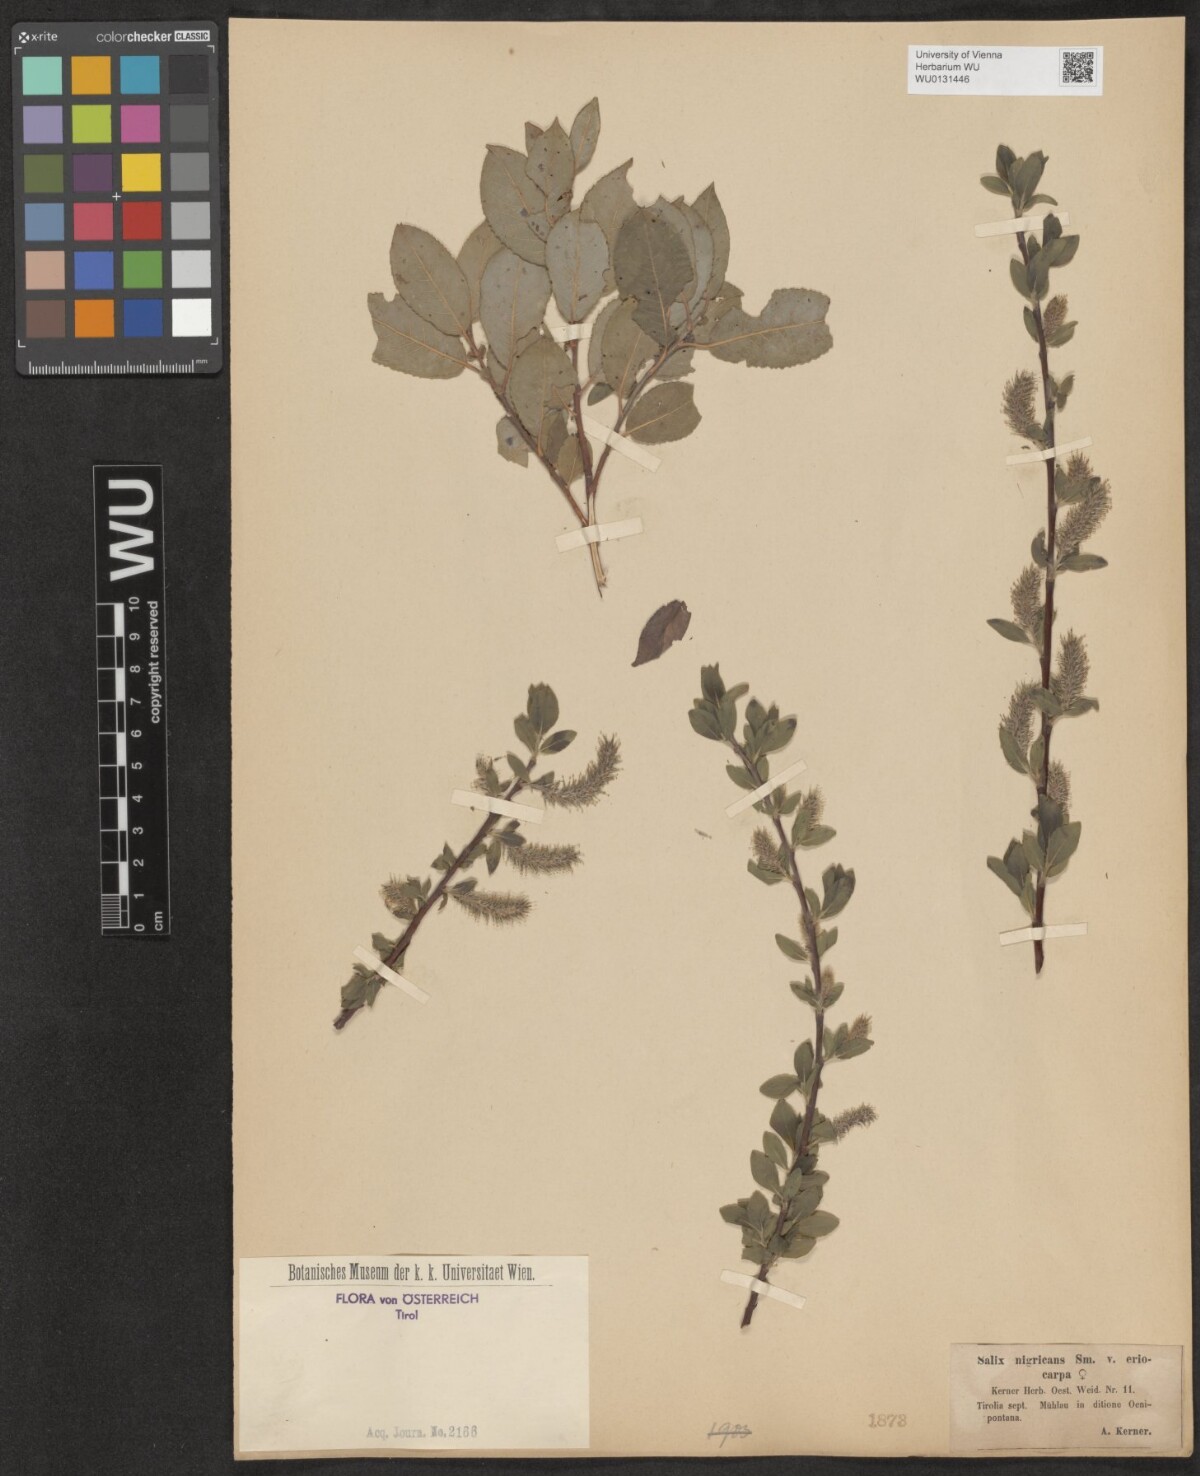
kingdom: Plantae
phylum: Tracheophyta
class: Magnoliopsida
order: Malpighiales
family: Salicaceae
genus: Salix
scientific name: Salix myrsinifolia
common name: Dark-leaved willow
